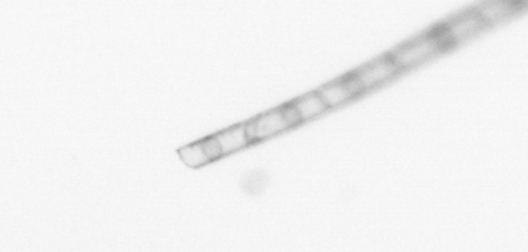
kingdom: Chromista
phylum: Ochrophyta
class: Bacillariophyceae
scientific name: Bacillariophyceae
